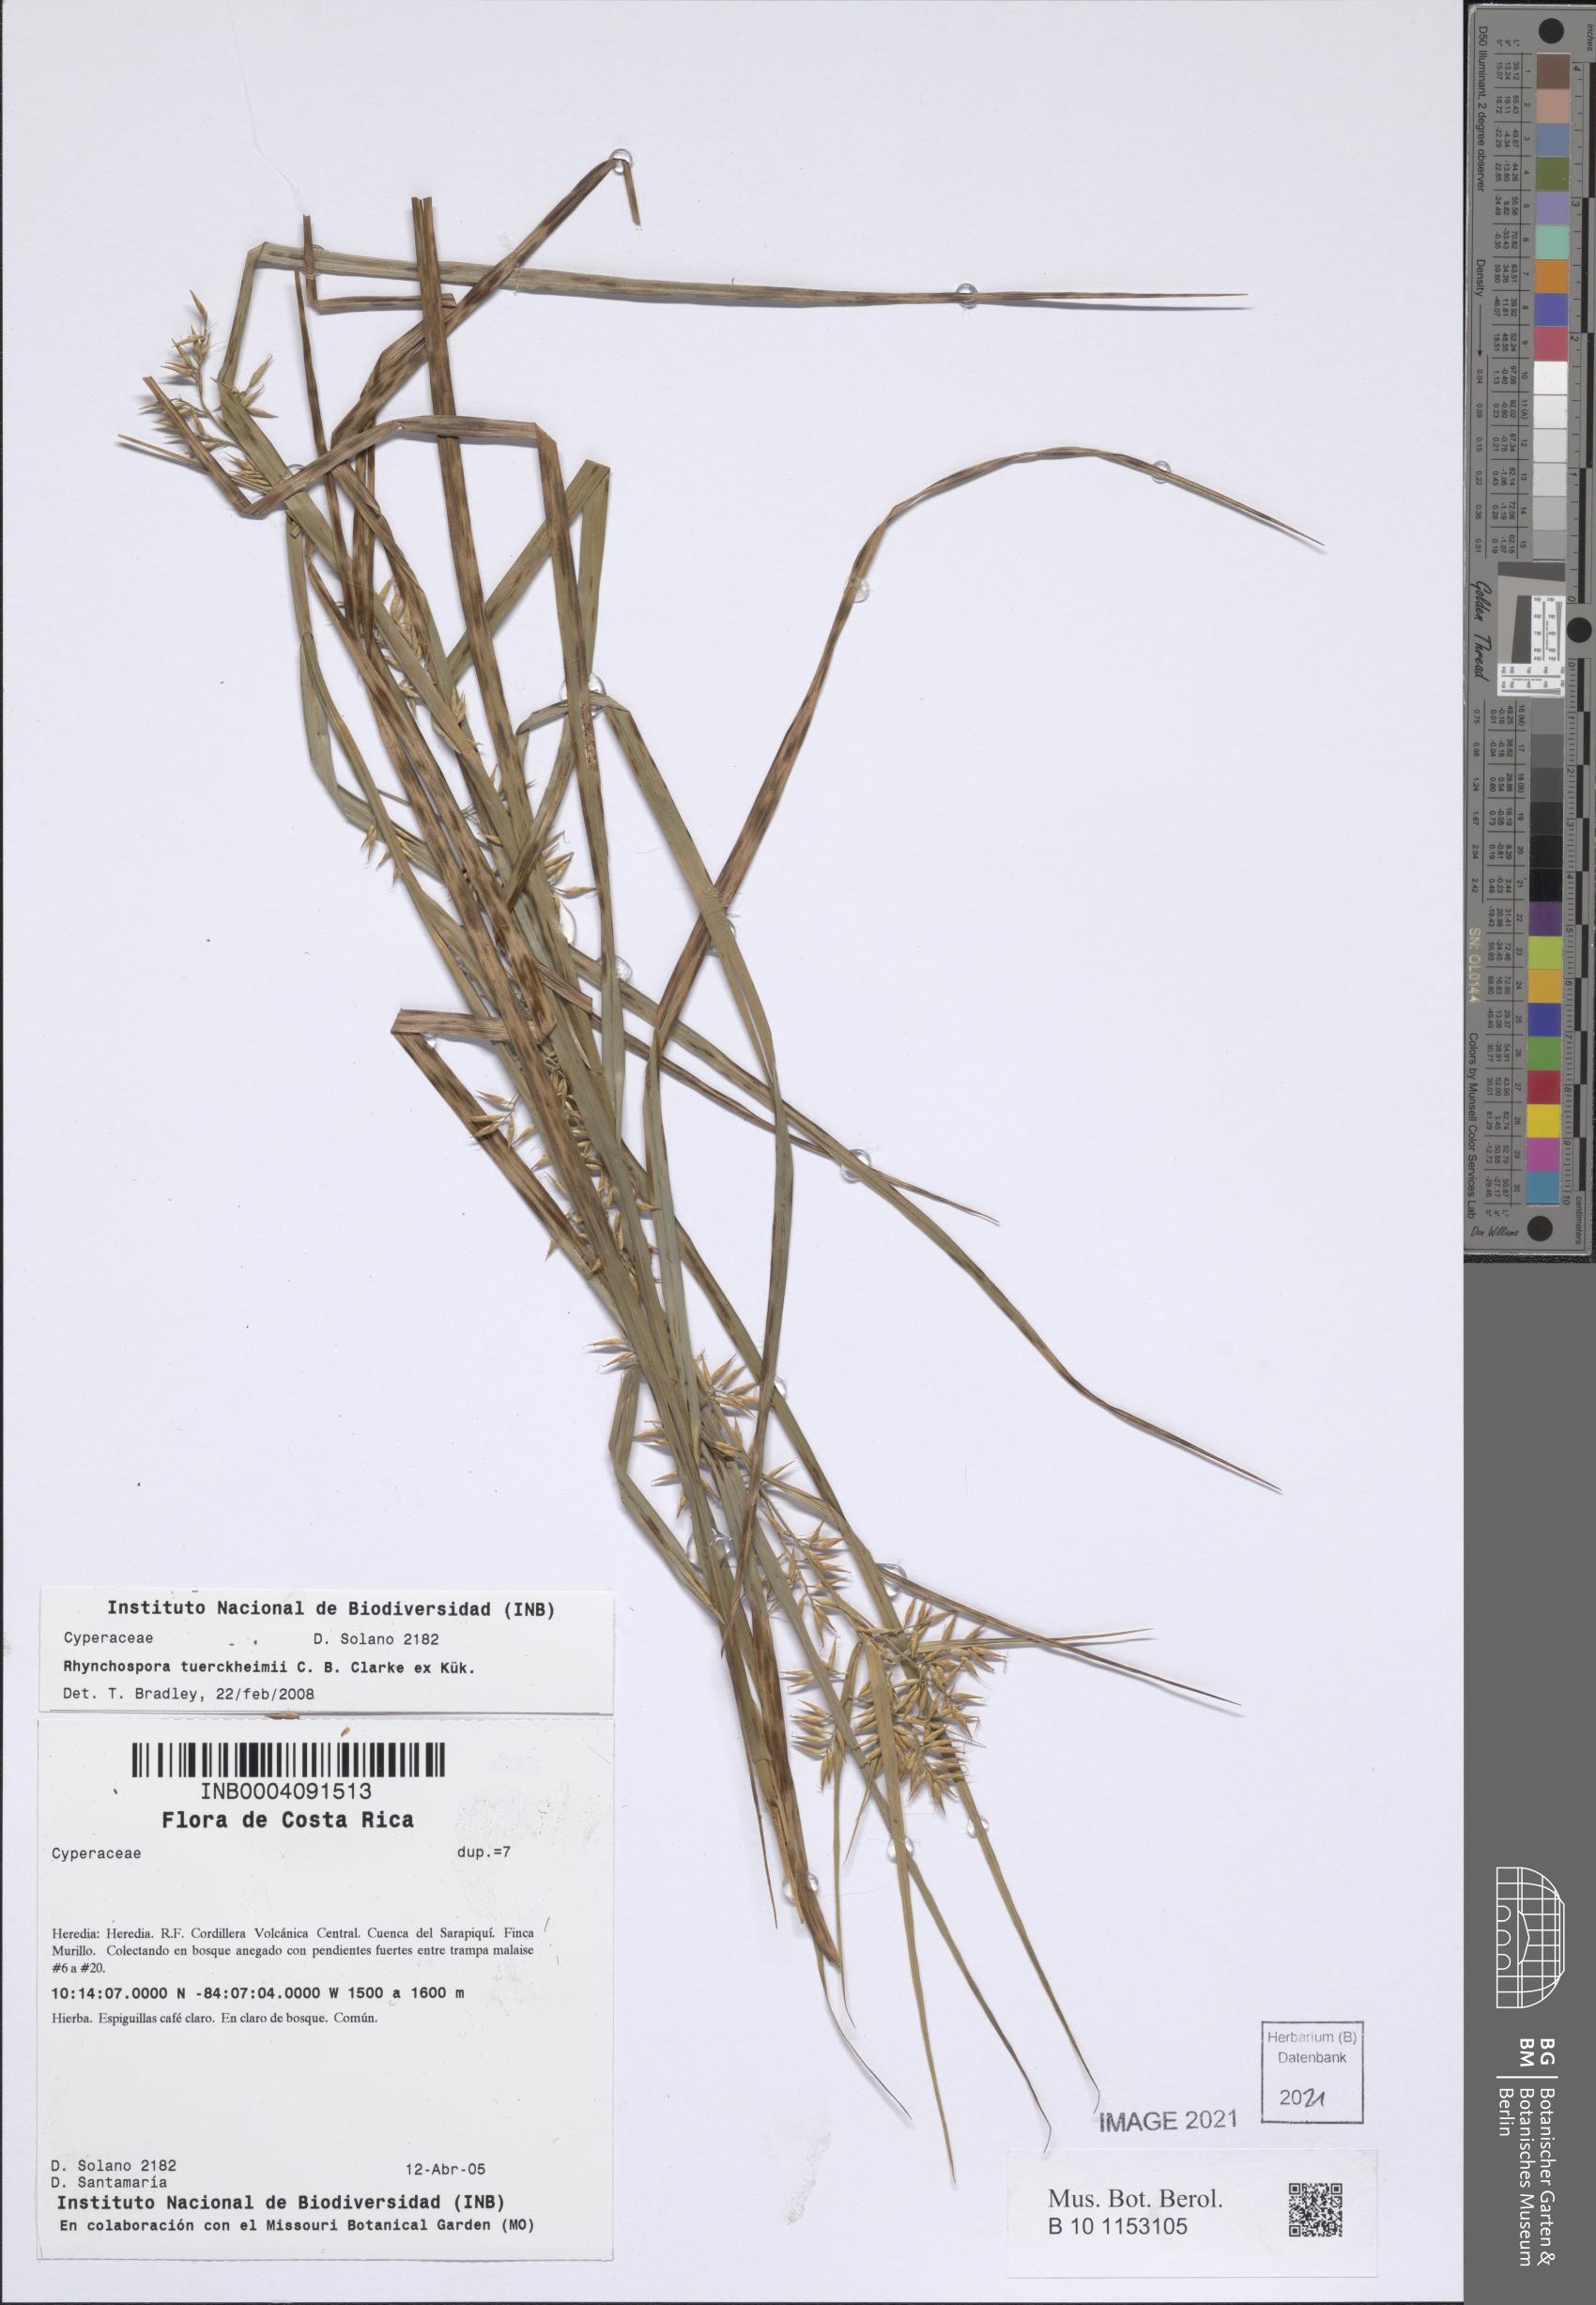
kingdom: Plantae
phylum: Tracheophyta
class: Liliopsida
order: Poales
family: Cyperaceae
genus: Rhynchospora
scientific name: Rhynchospora tuerckheimii
